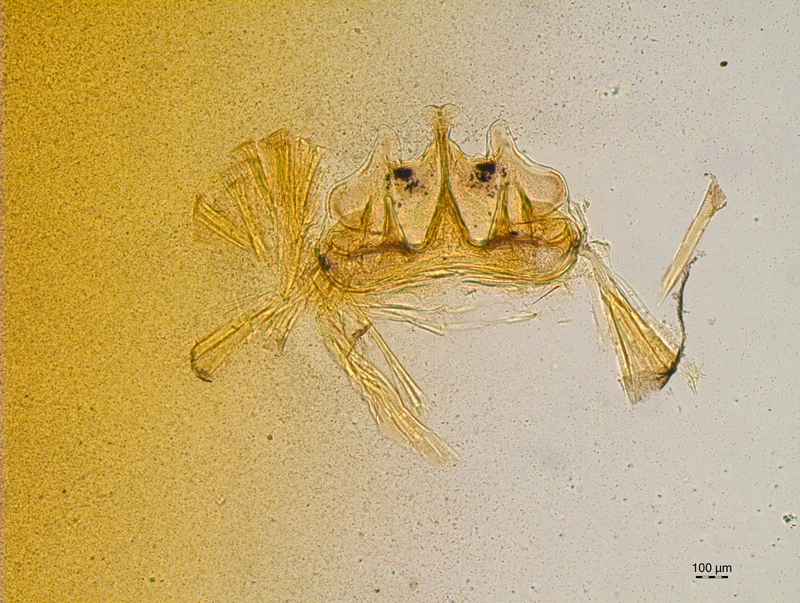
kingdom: Animalia
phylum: Arthropoda
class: Diplopoda
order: Chordeumatida
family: Craspedosomatidae
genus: Craspedosoma
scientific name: Craspedosoma rawlinsii
